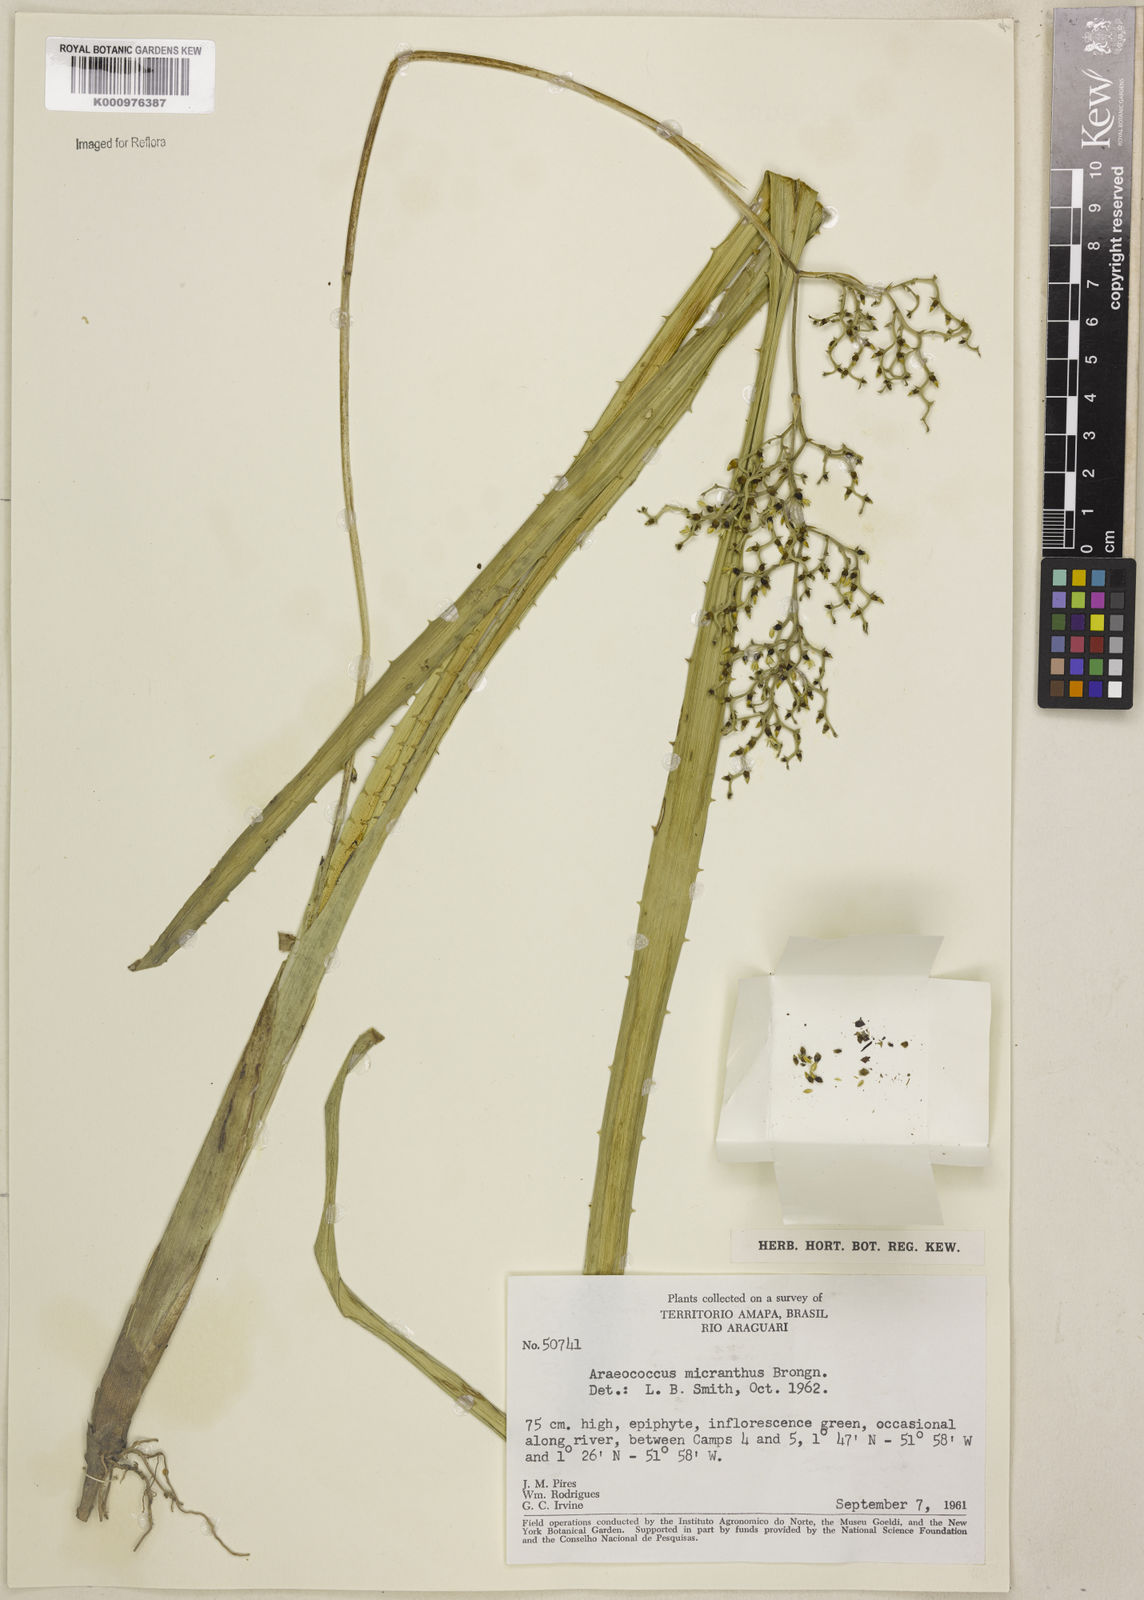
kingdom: Plantae
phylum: Tracheophyta
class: Liliopsida
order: Poales
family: Bromeliaceae
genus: Araeococcus
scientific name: Araeococcus micranthus
